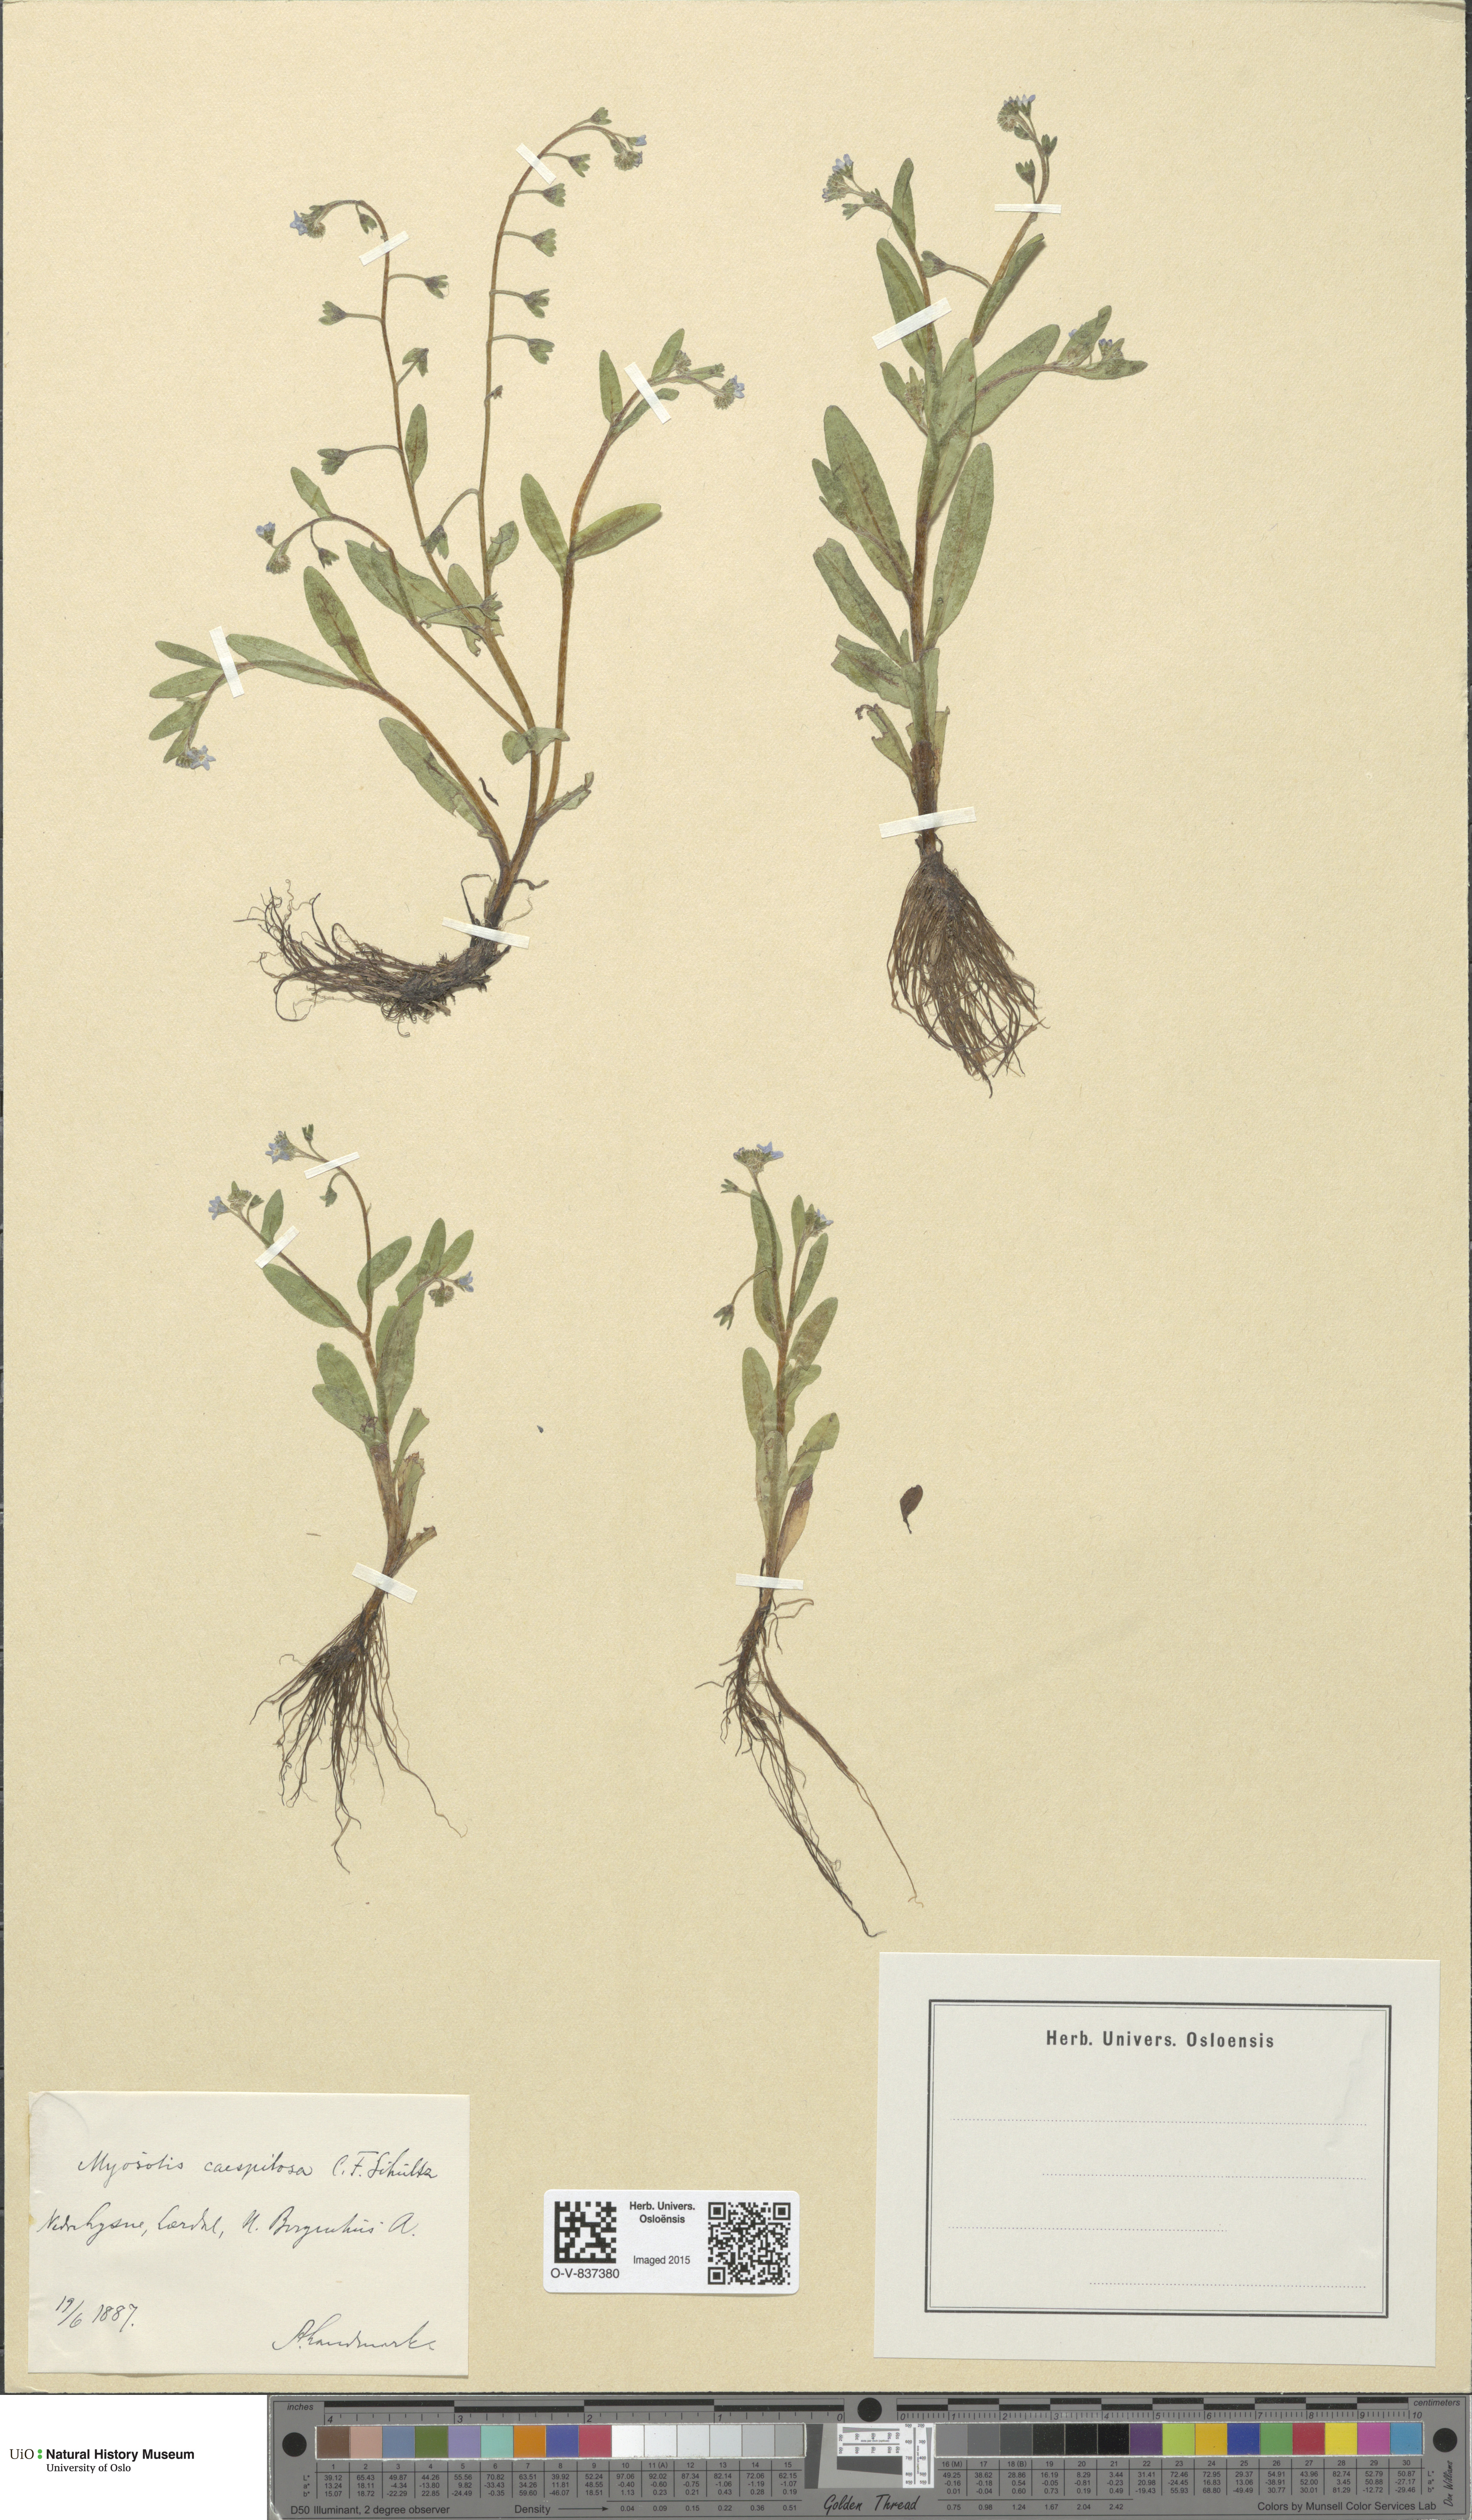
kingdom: Plantae
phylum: Tracheophyta
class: Magnoliopsida
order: Boraginales
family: Boraginaceae
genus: Myosotis
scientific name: Myosotis laxa
